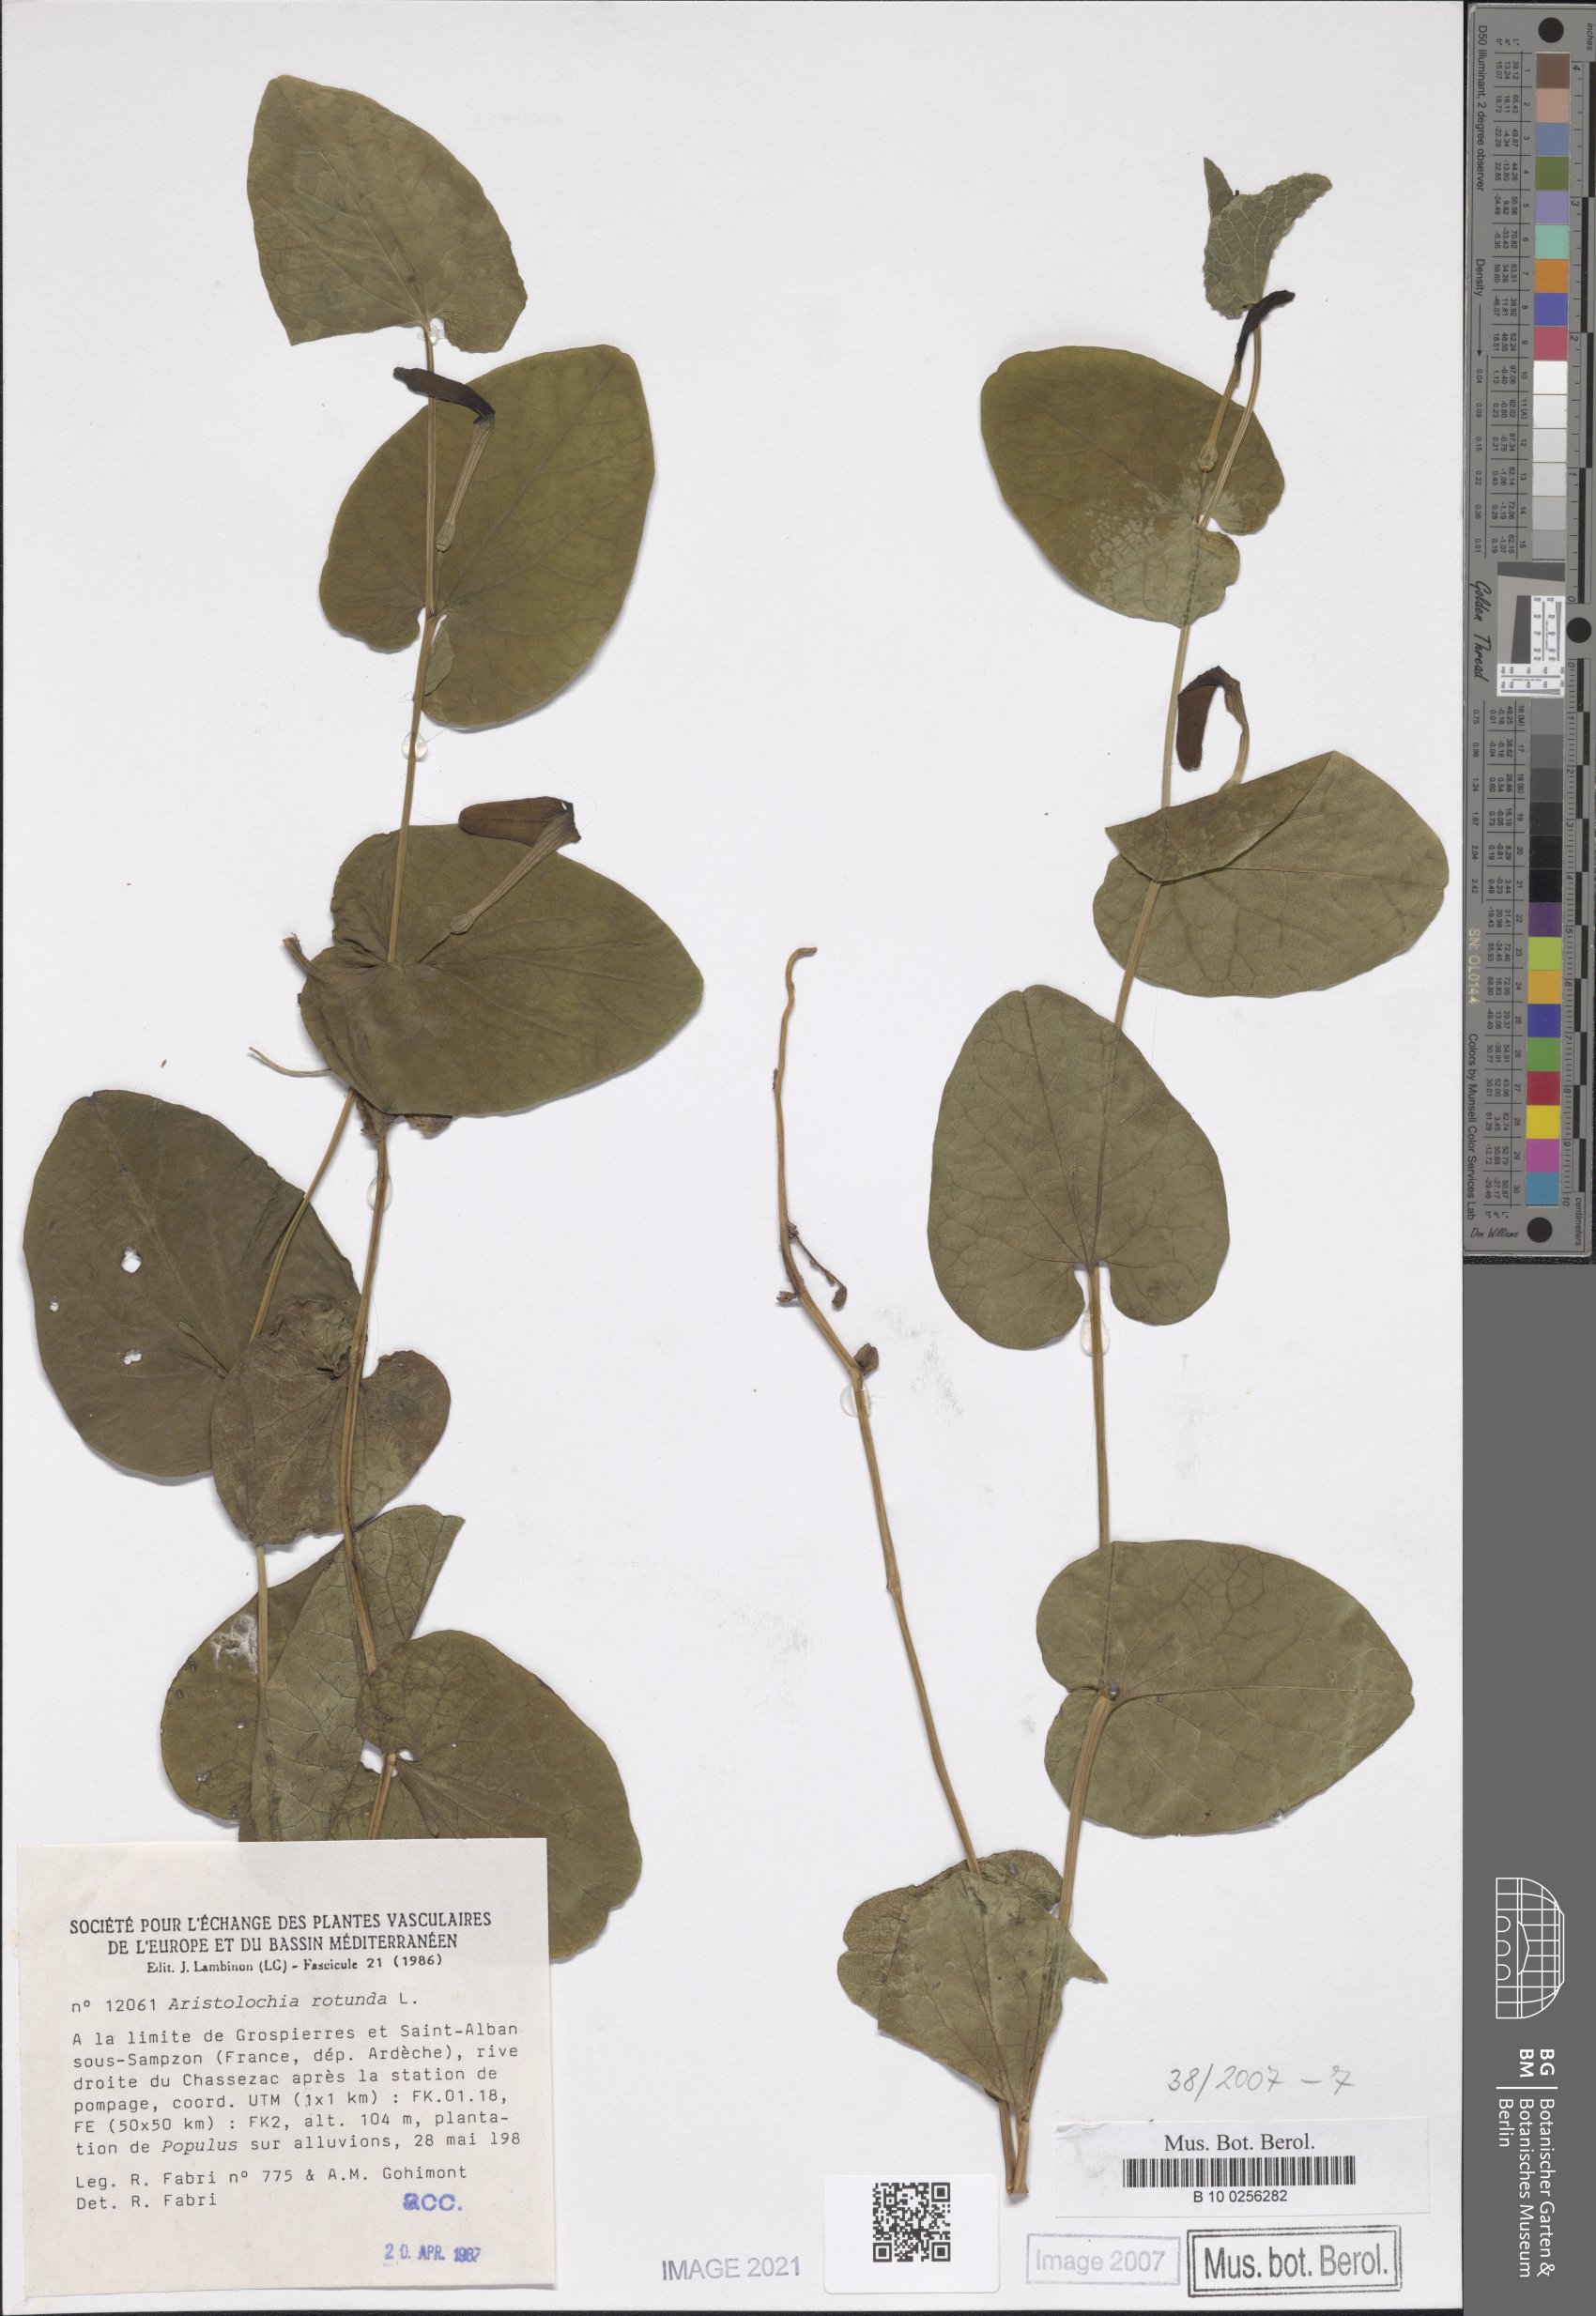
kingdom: Plantae
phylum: Tracheophyta
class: Magnoliopsida
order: Piperales
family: Aristolochiaceae
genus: Aristolochia
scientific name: Aristolochia rotunda
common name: Smearwort
